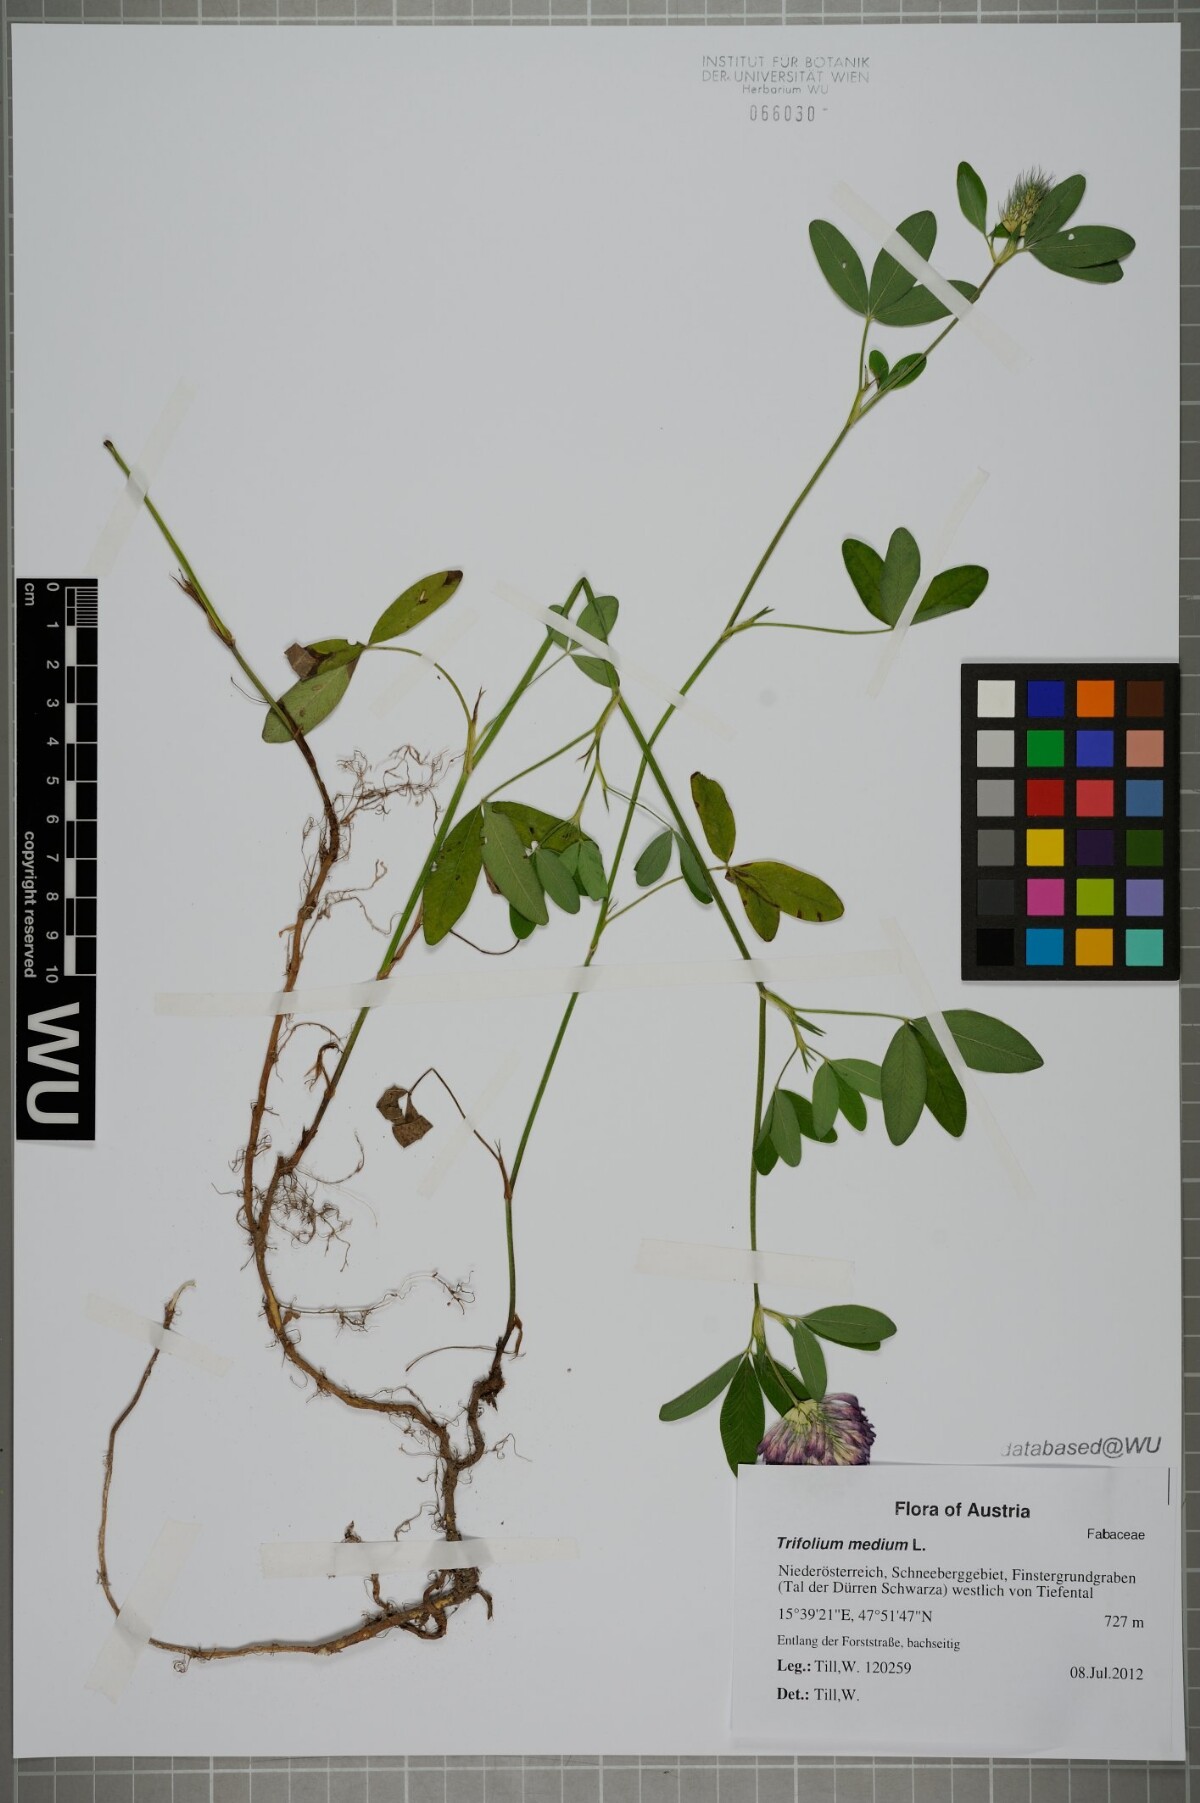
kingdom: Plantae
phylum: Tracheophyta
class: Magnoliopsida
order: Fabales
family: Fabaceae
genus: Trifolium
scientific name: Trifolium medium
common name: Zigzag clover
